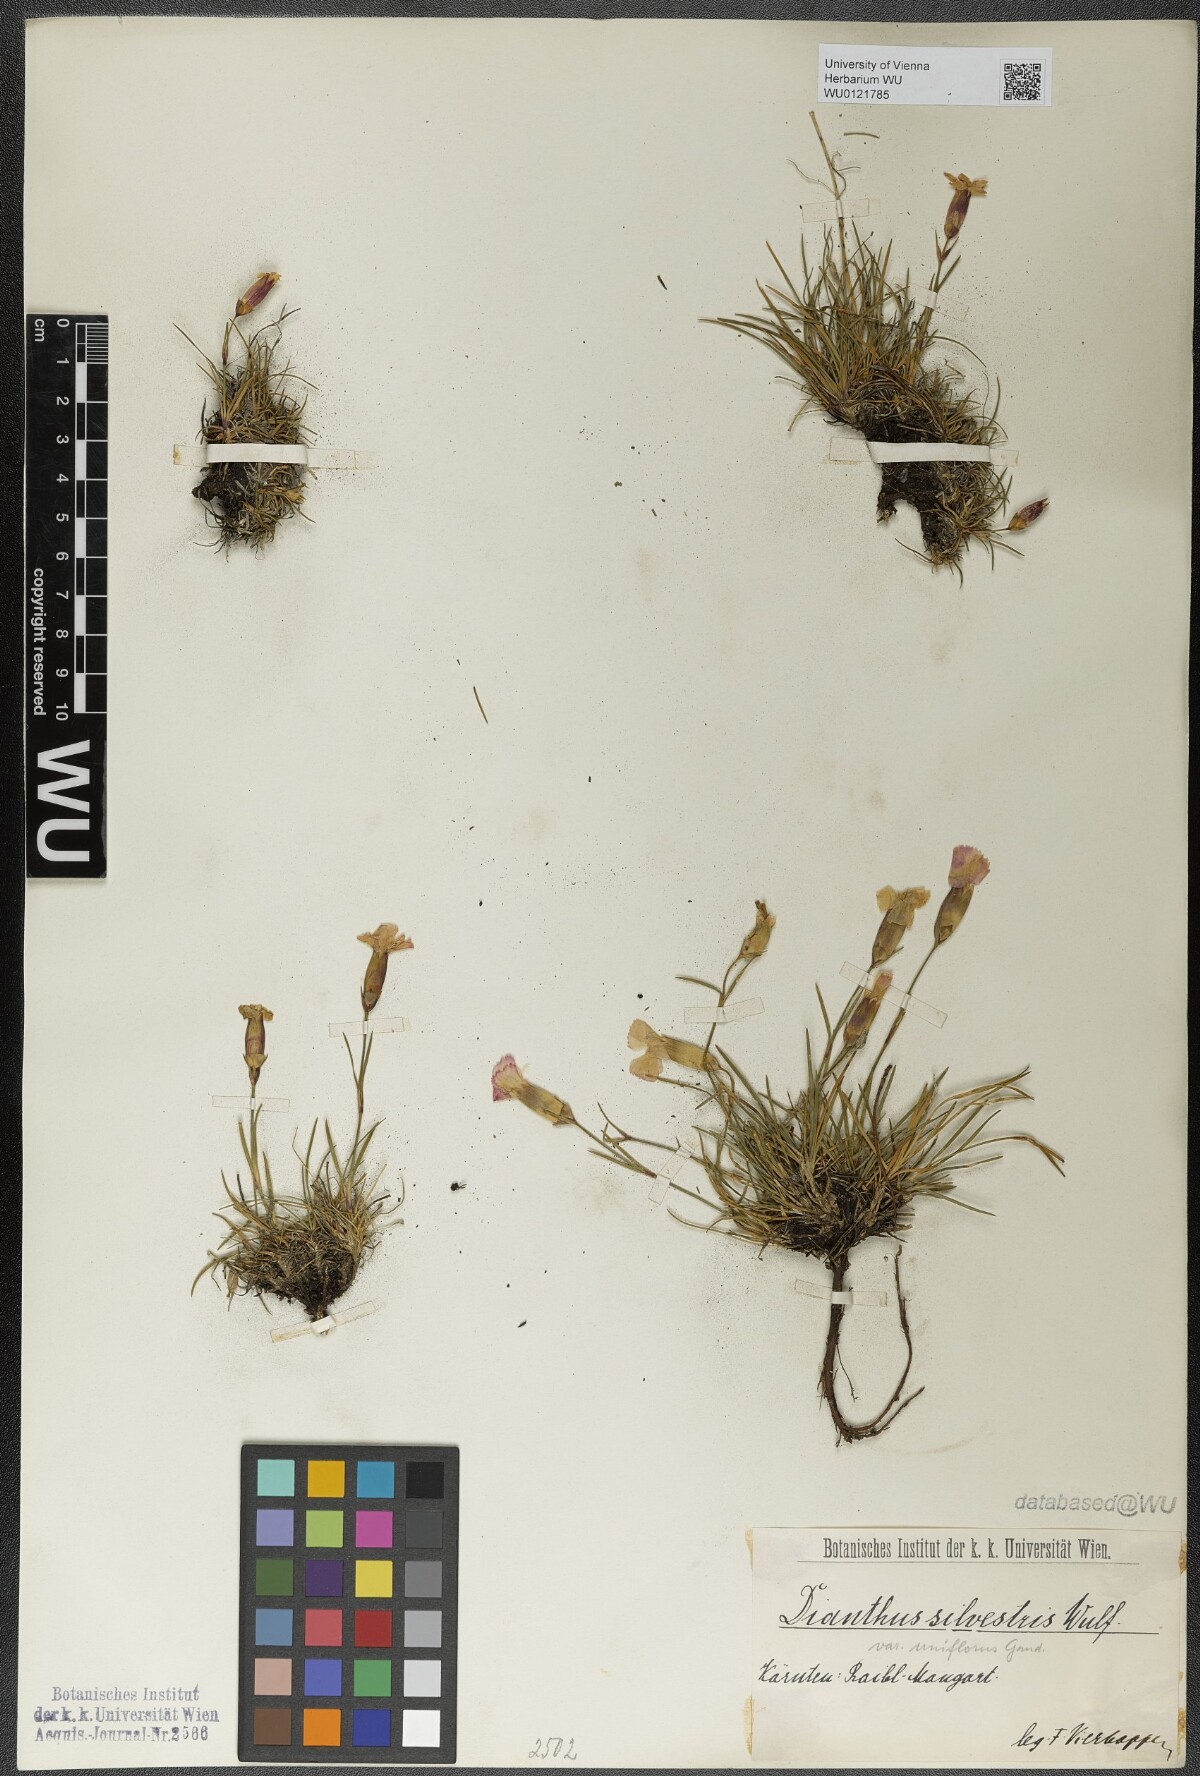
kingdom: Plantae
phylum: Tracheophyta
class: Magnoliopsida
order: Caryophyllales
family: Caryophyllaceae
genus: Dianthus
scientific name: Dianthus sylvestris
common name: Wood pink
